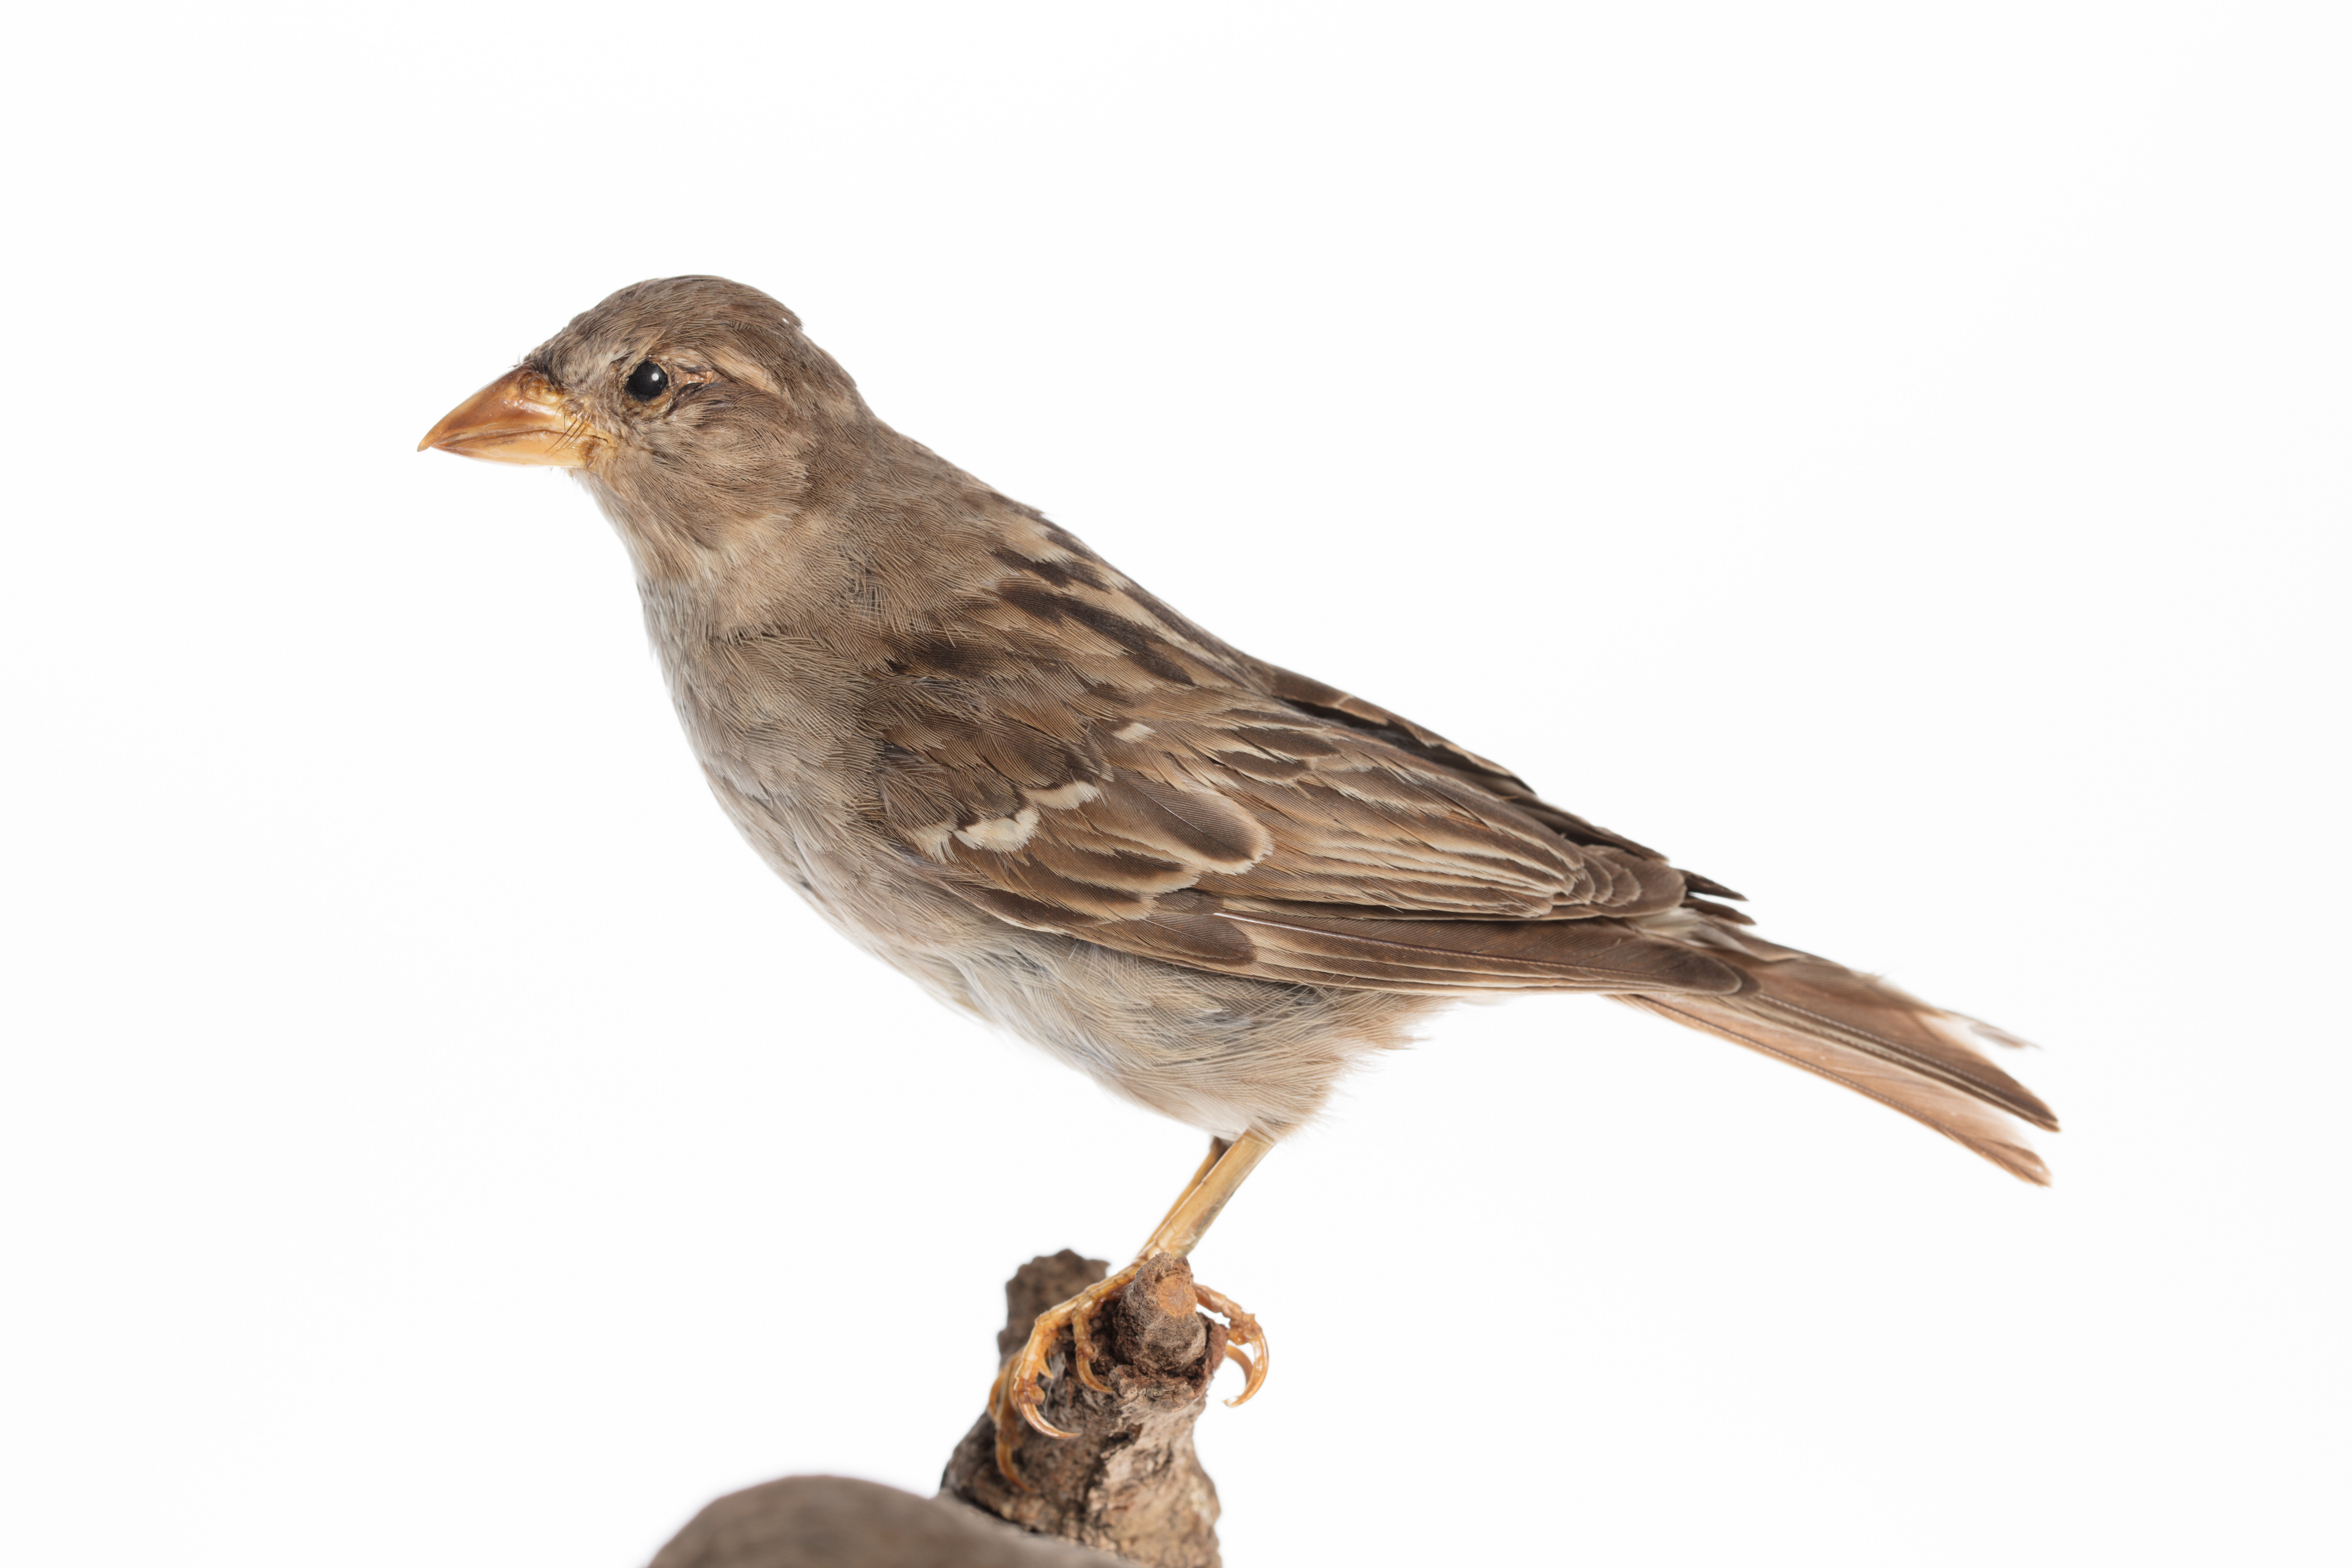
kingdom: Animalia
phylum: Chordata
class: Aves
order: Passeriformes
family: Passeridae
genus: Passer
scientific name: Passer domesticus
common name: House sparrow
